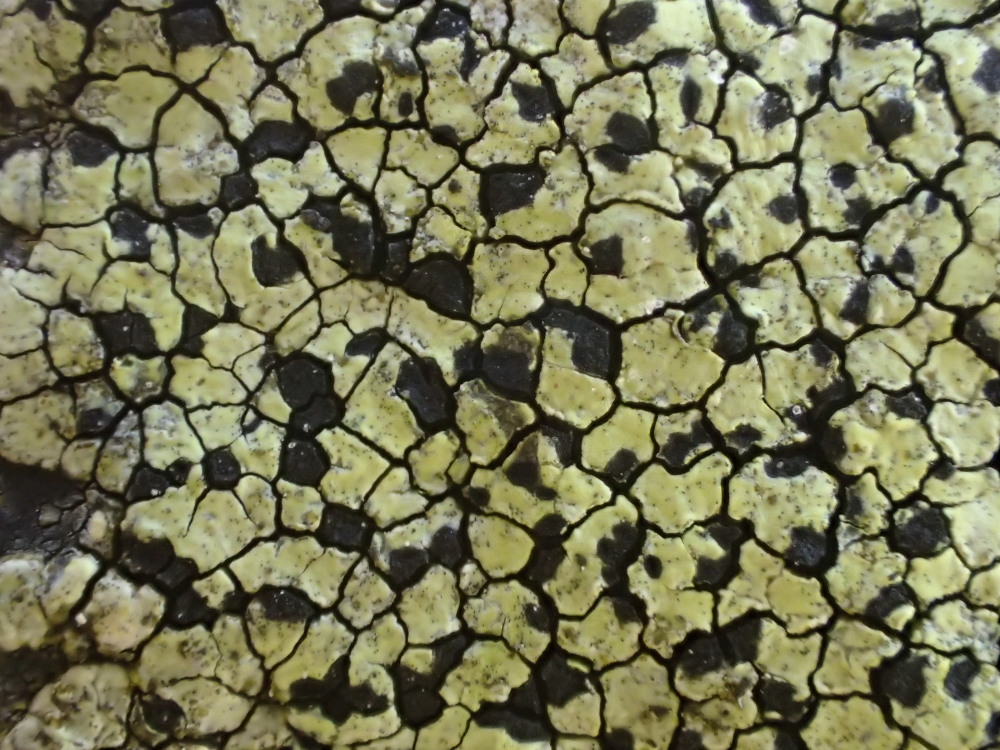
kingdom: Fungi
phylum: Ascomycota
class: Lecanoromycetes
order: Rhizocarpales
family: Rhizocarpaceae
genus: Rhizocarpon
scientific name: Rhizocarpon geographicum
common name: gulgrøn landkortlav
